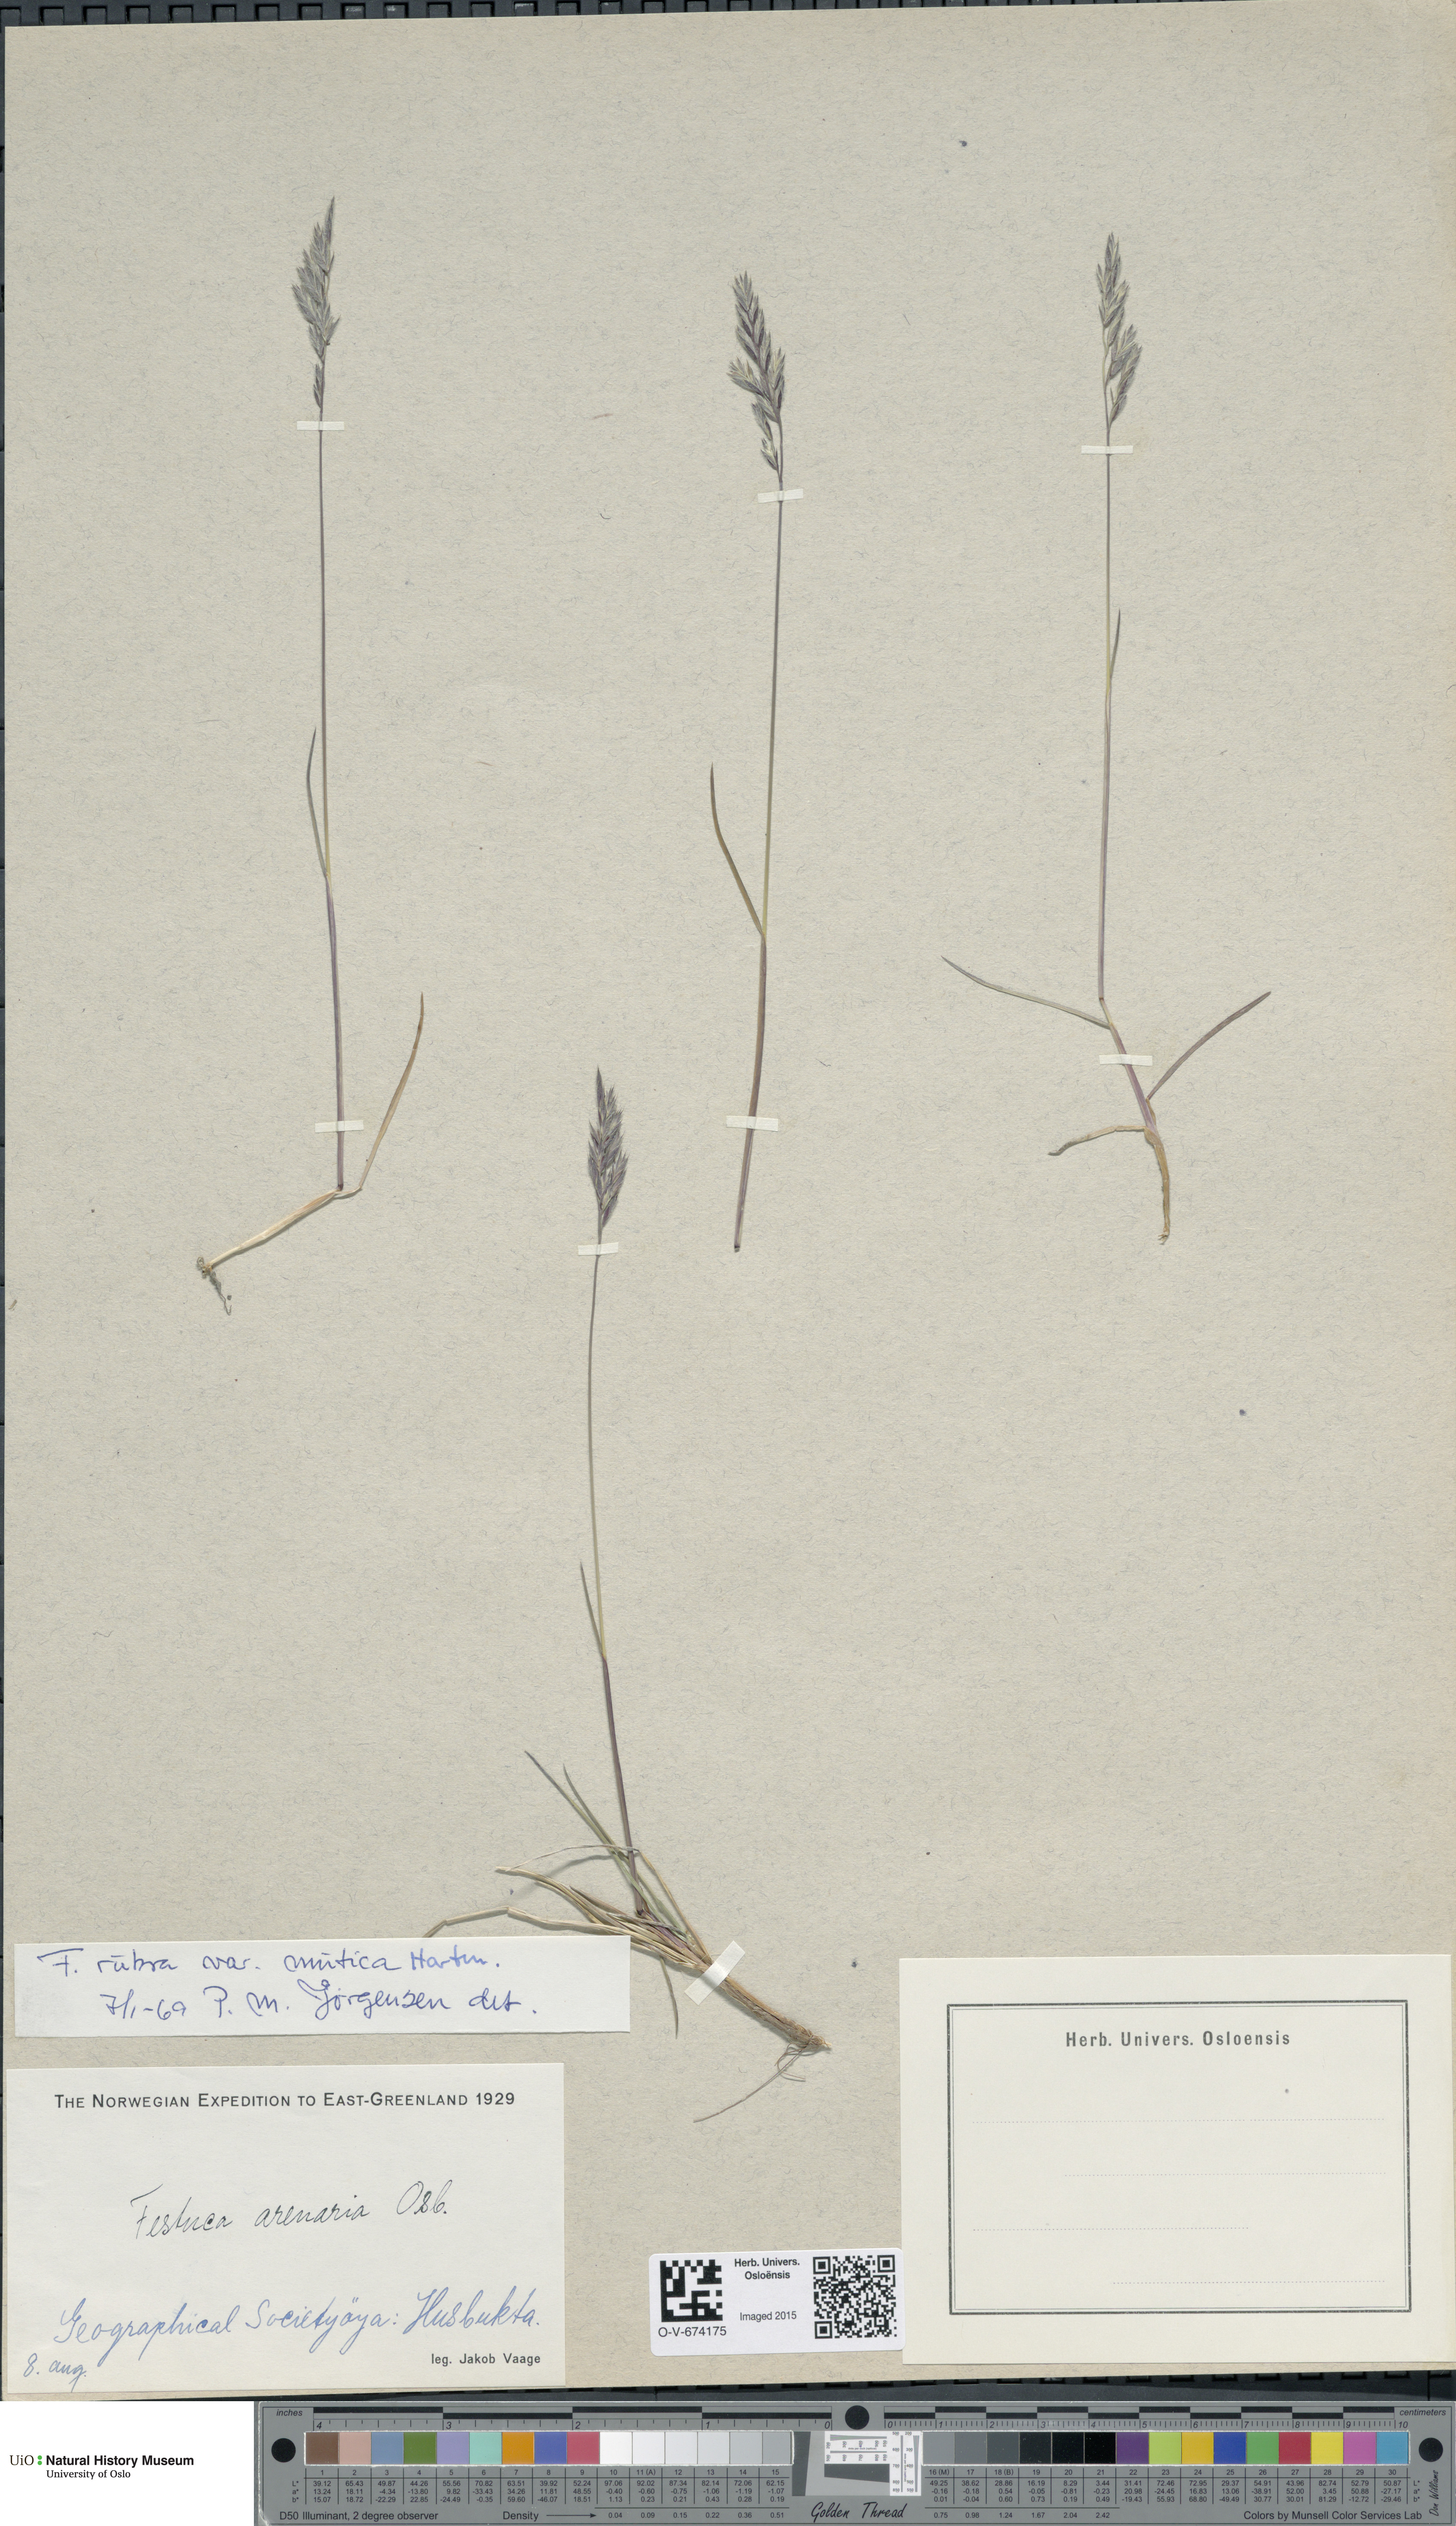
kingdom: Plantae
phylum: Tracheophyta
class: Liliopsida
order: Poales
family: Poaceae
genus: Festuca
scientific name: Festuca richardsonii
